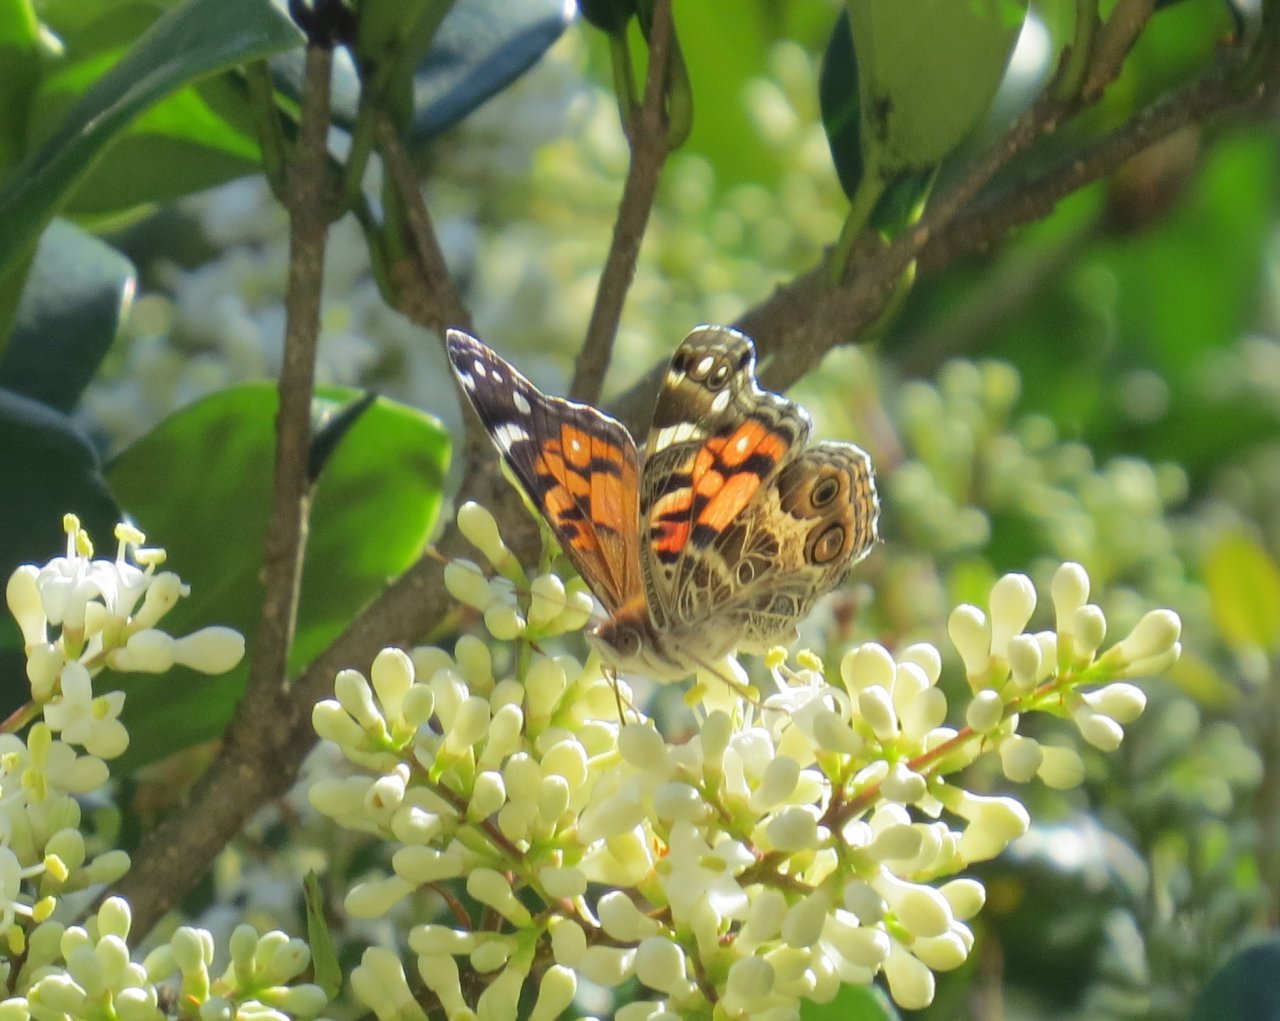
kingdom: Animalia
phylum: Arthropoda
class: Insecta
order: Lepidoptera
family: Nymphalidae
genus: Vanessa
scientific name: Vanessa virginiensis
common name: American Lady
